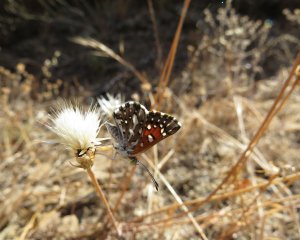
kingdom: Animalia
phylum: Arthropoda
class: Insecta
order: Lepidoptera
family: Riodinidae
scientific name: Riodinidae
